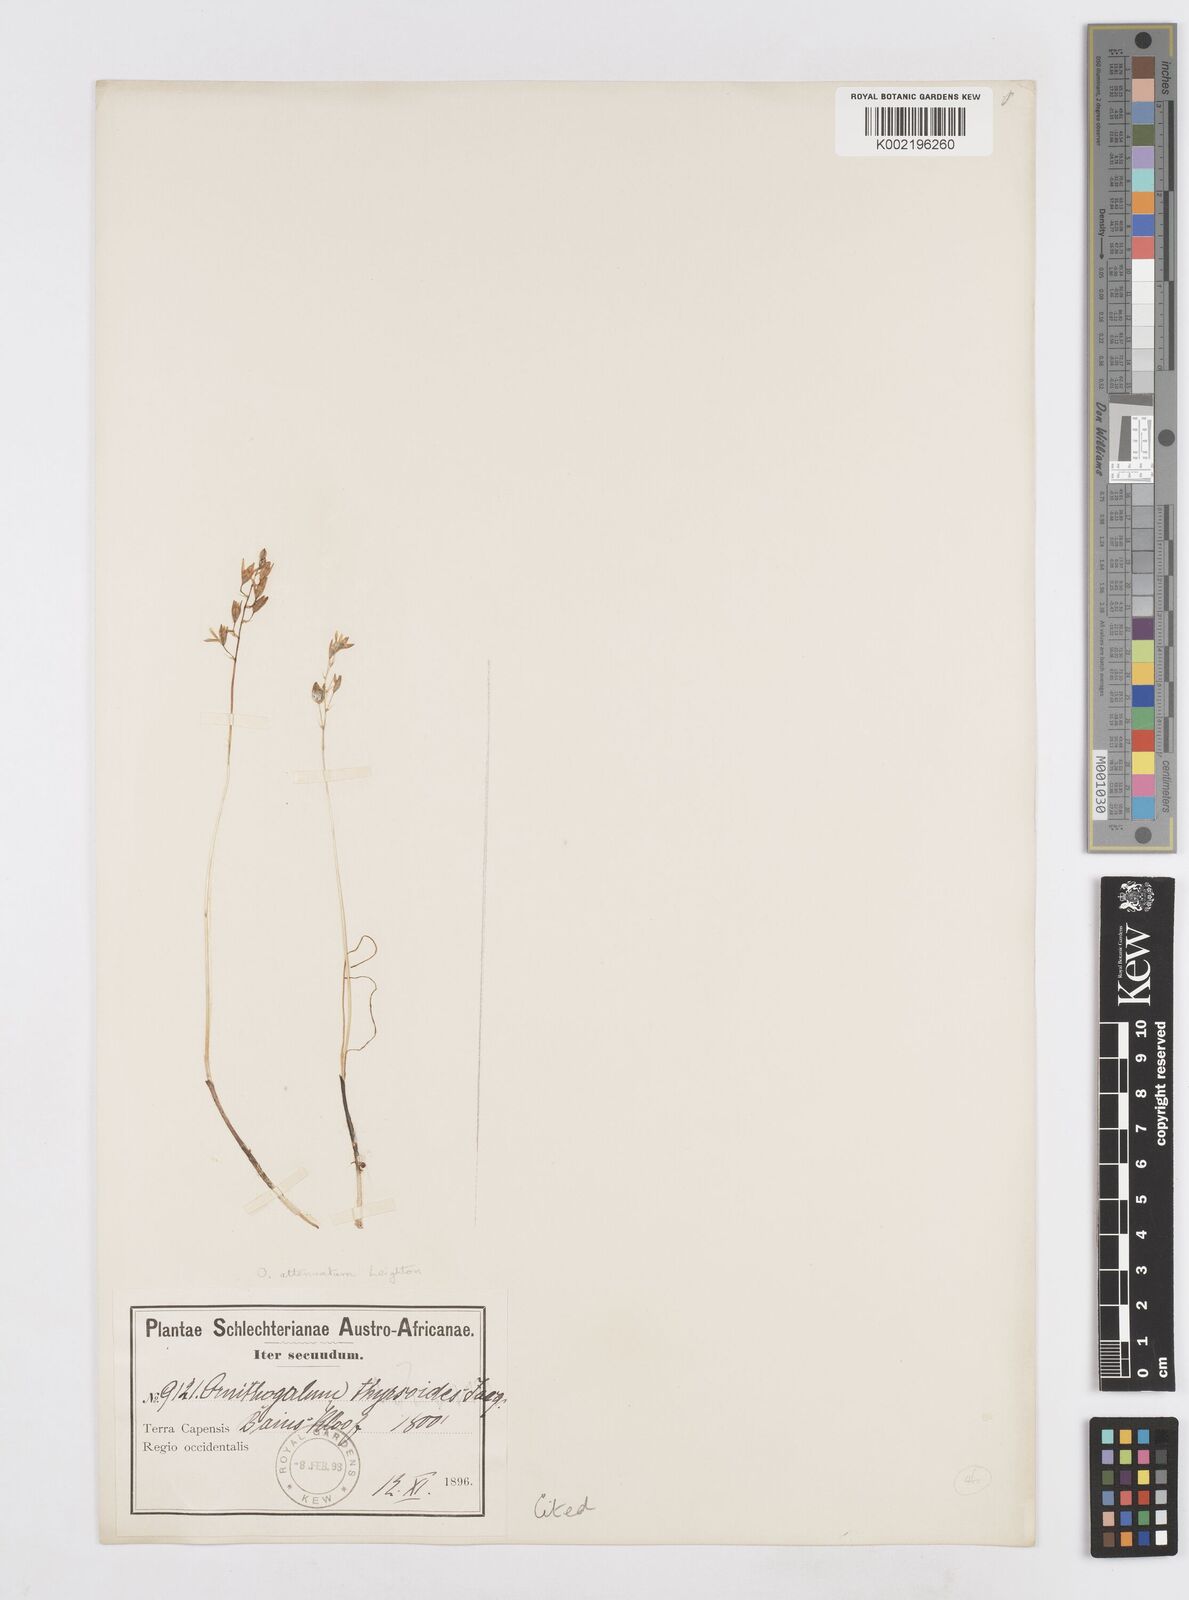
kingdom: Plantae
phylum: Tracheophyta
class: Liliopsida
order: Asparagales
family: Asparagaceae
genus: Ornithogalum
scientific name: Ornithogalum graminifolium
